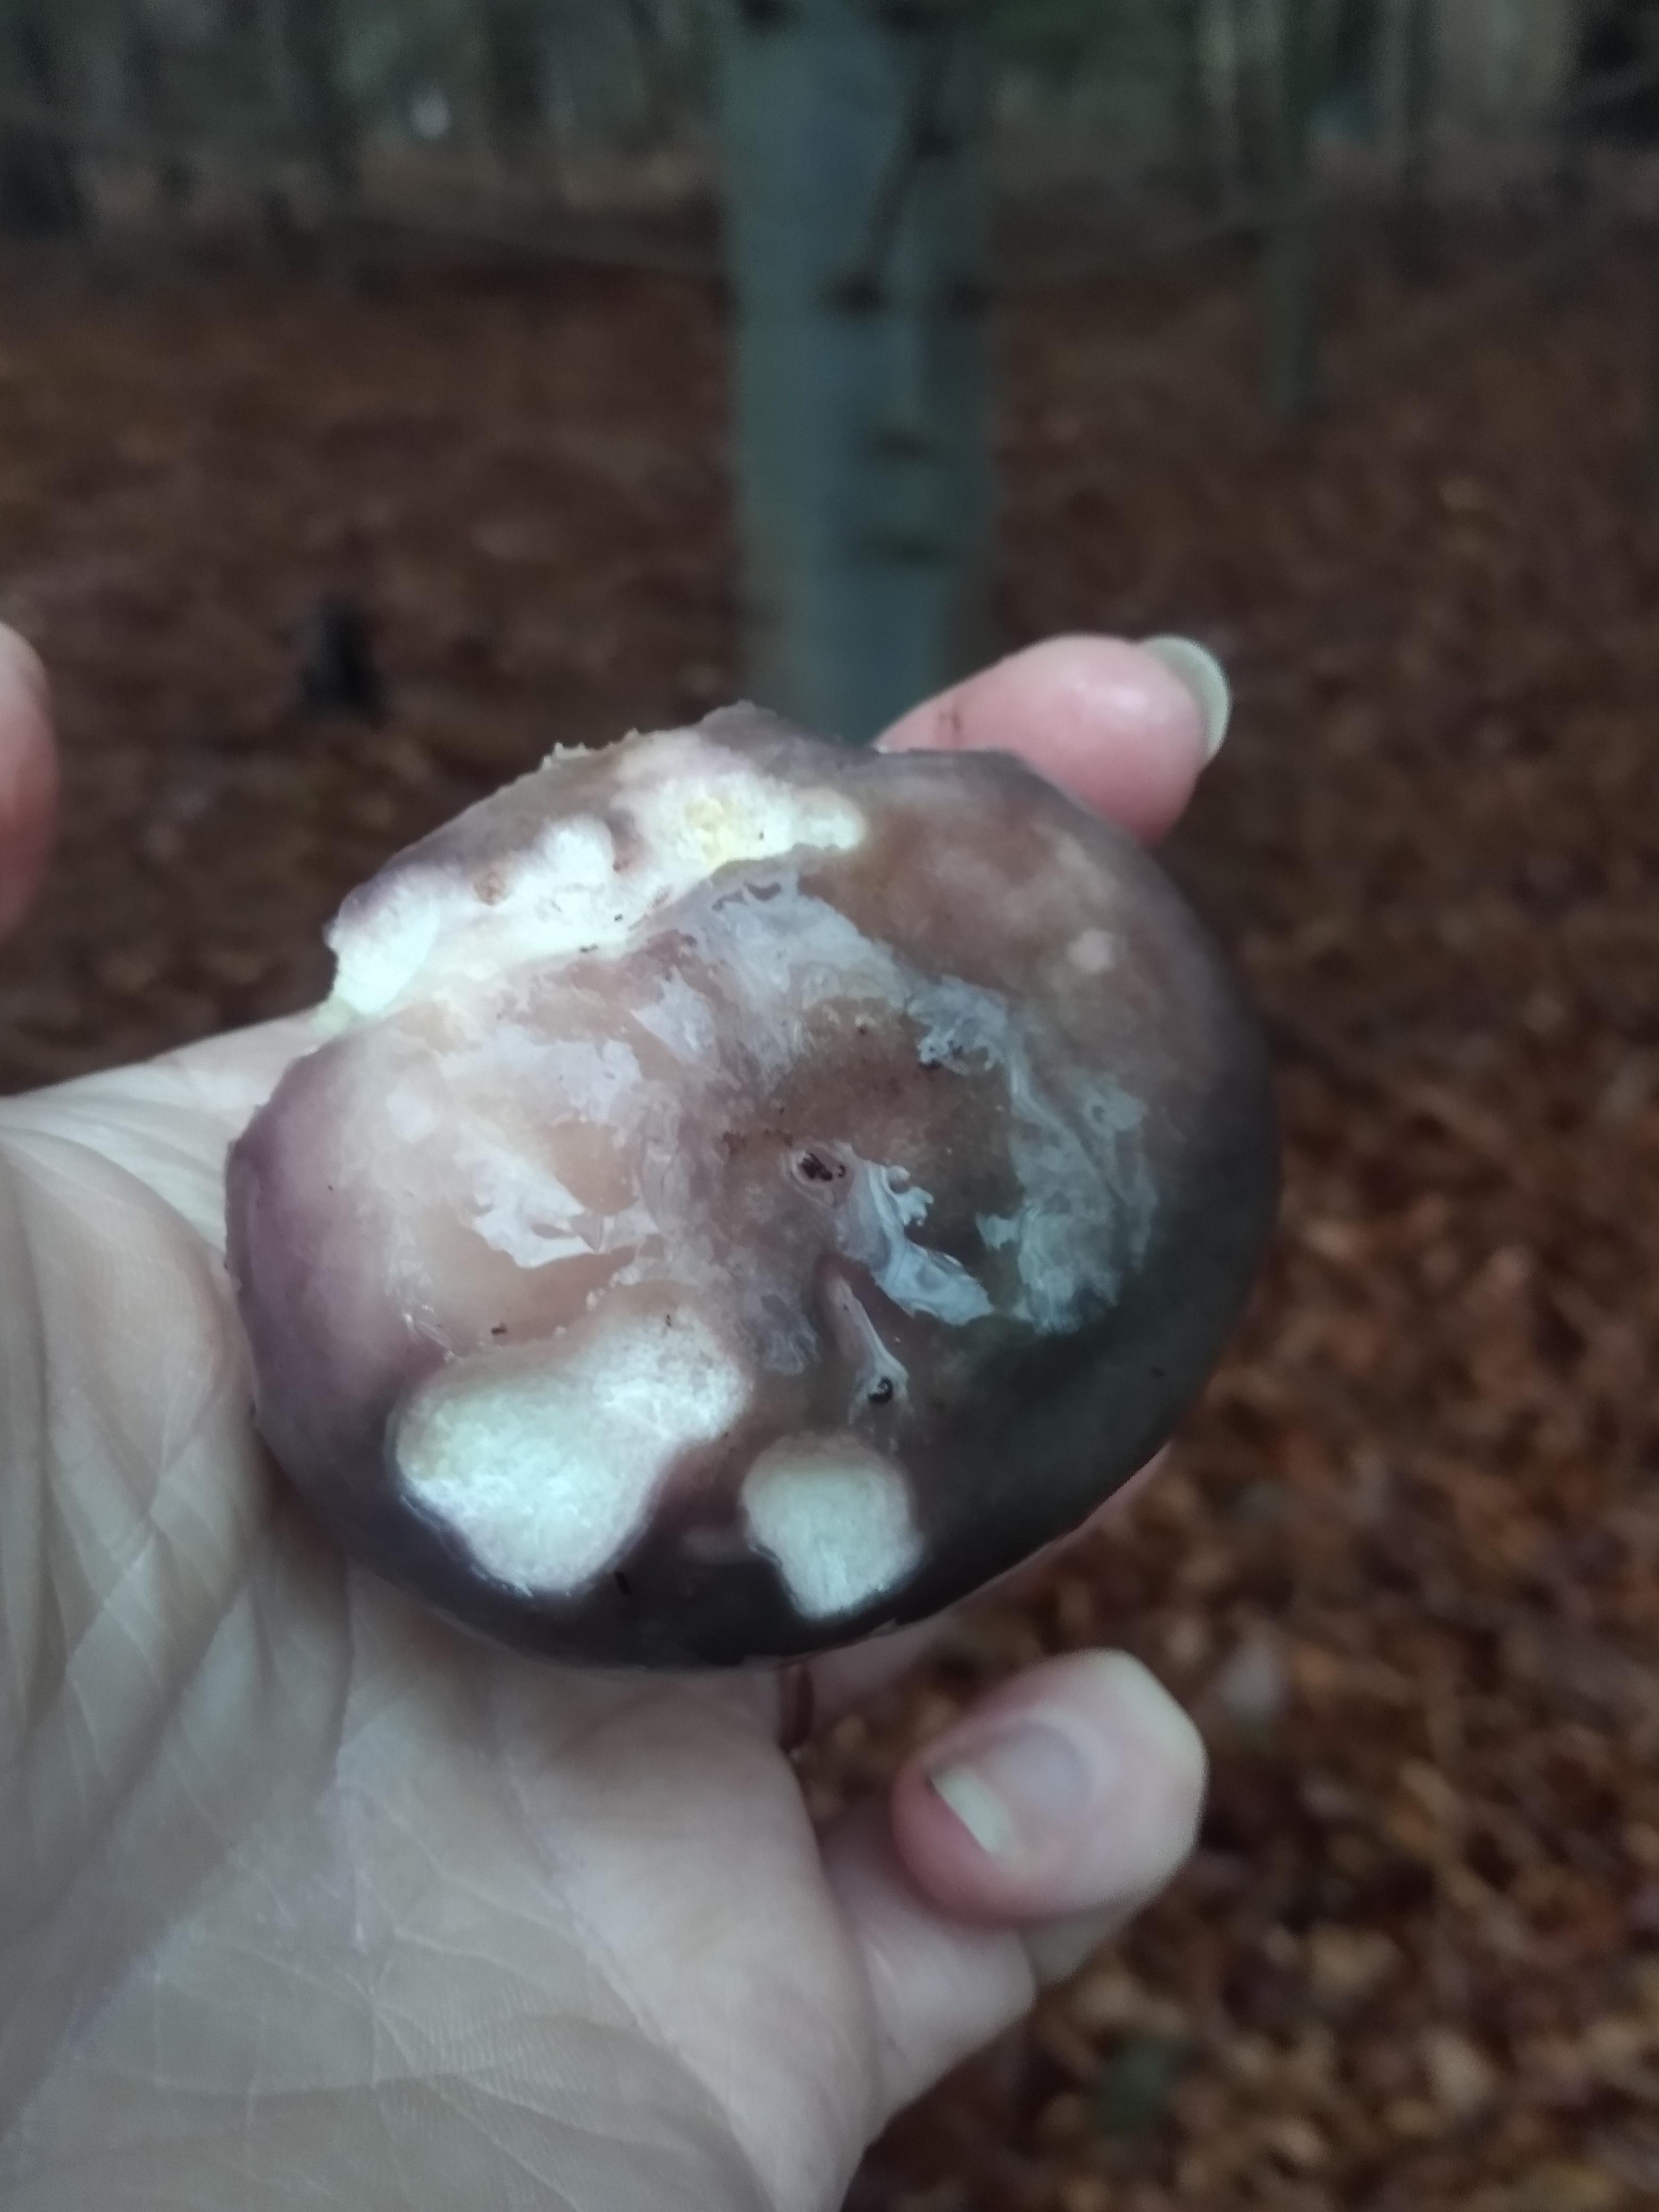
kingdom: Fungi
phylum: Basidiomycota
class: Agaricomycetes
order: Russulales
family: Russulaceae
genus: Russula
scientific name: Russula cyanoxantha
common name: broget skørhat
